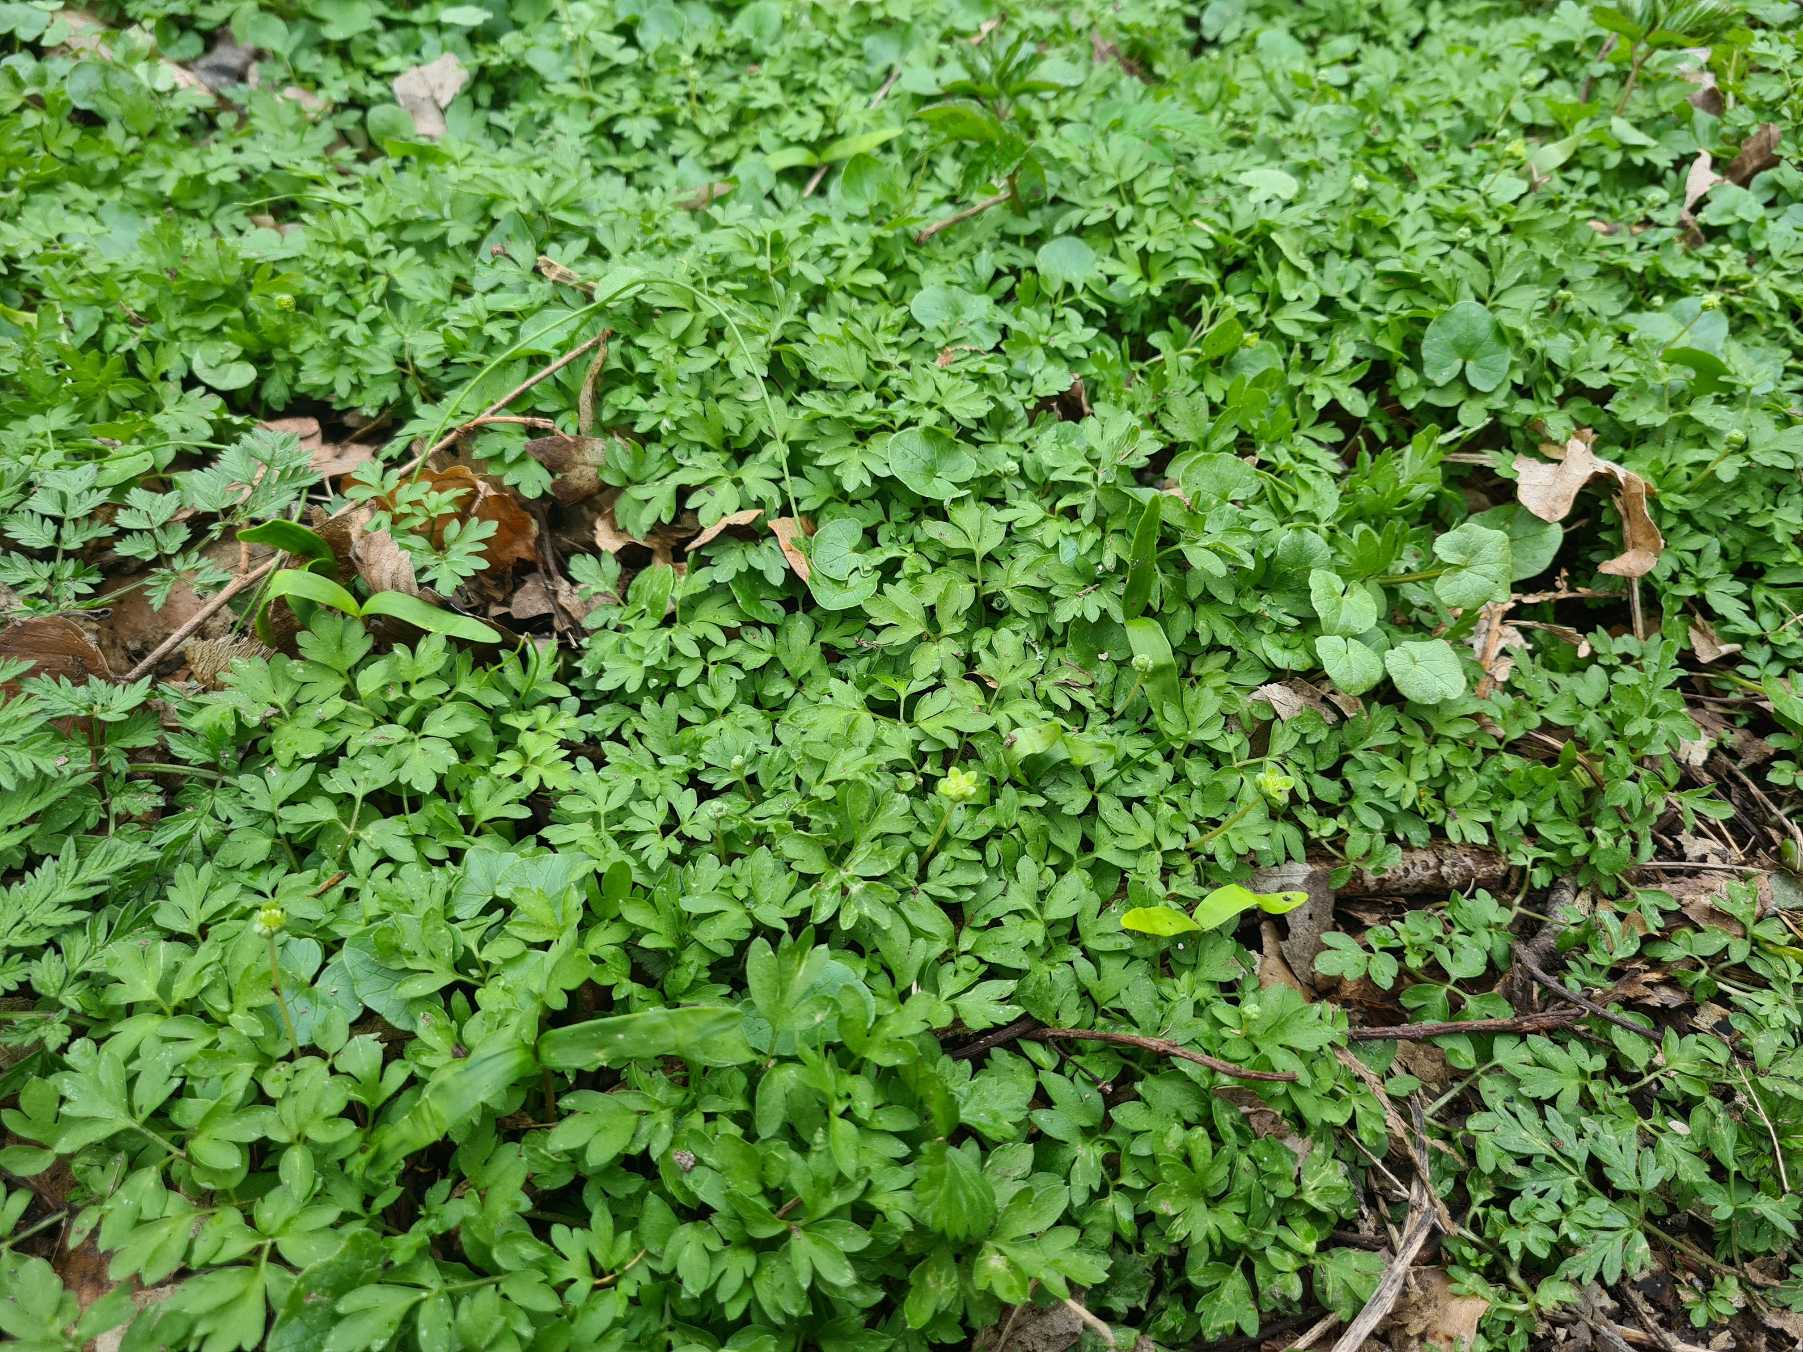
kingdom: Plantae
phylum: Tracheophyta
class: Magnoliopsida
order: Dipsacales
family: Viburnaceae
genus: Adoxa
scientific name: Adoxa moschatellina
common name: Desmerurt
